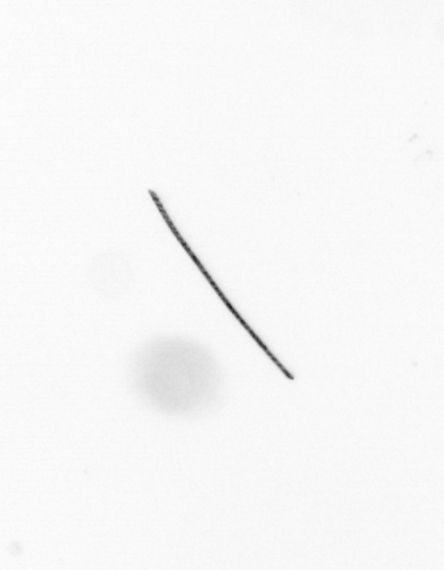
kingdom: Chromista
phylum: Ochrophyta
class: Bacillariophyceae
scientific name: Bacillariophyceae
